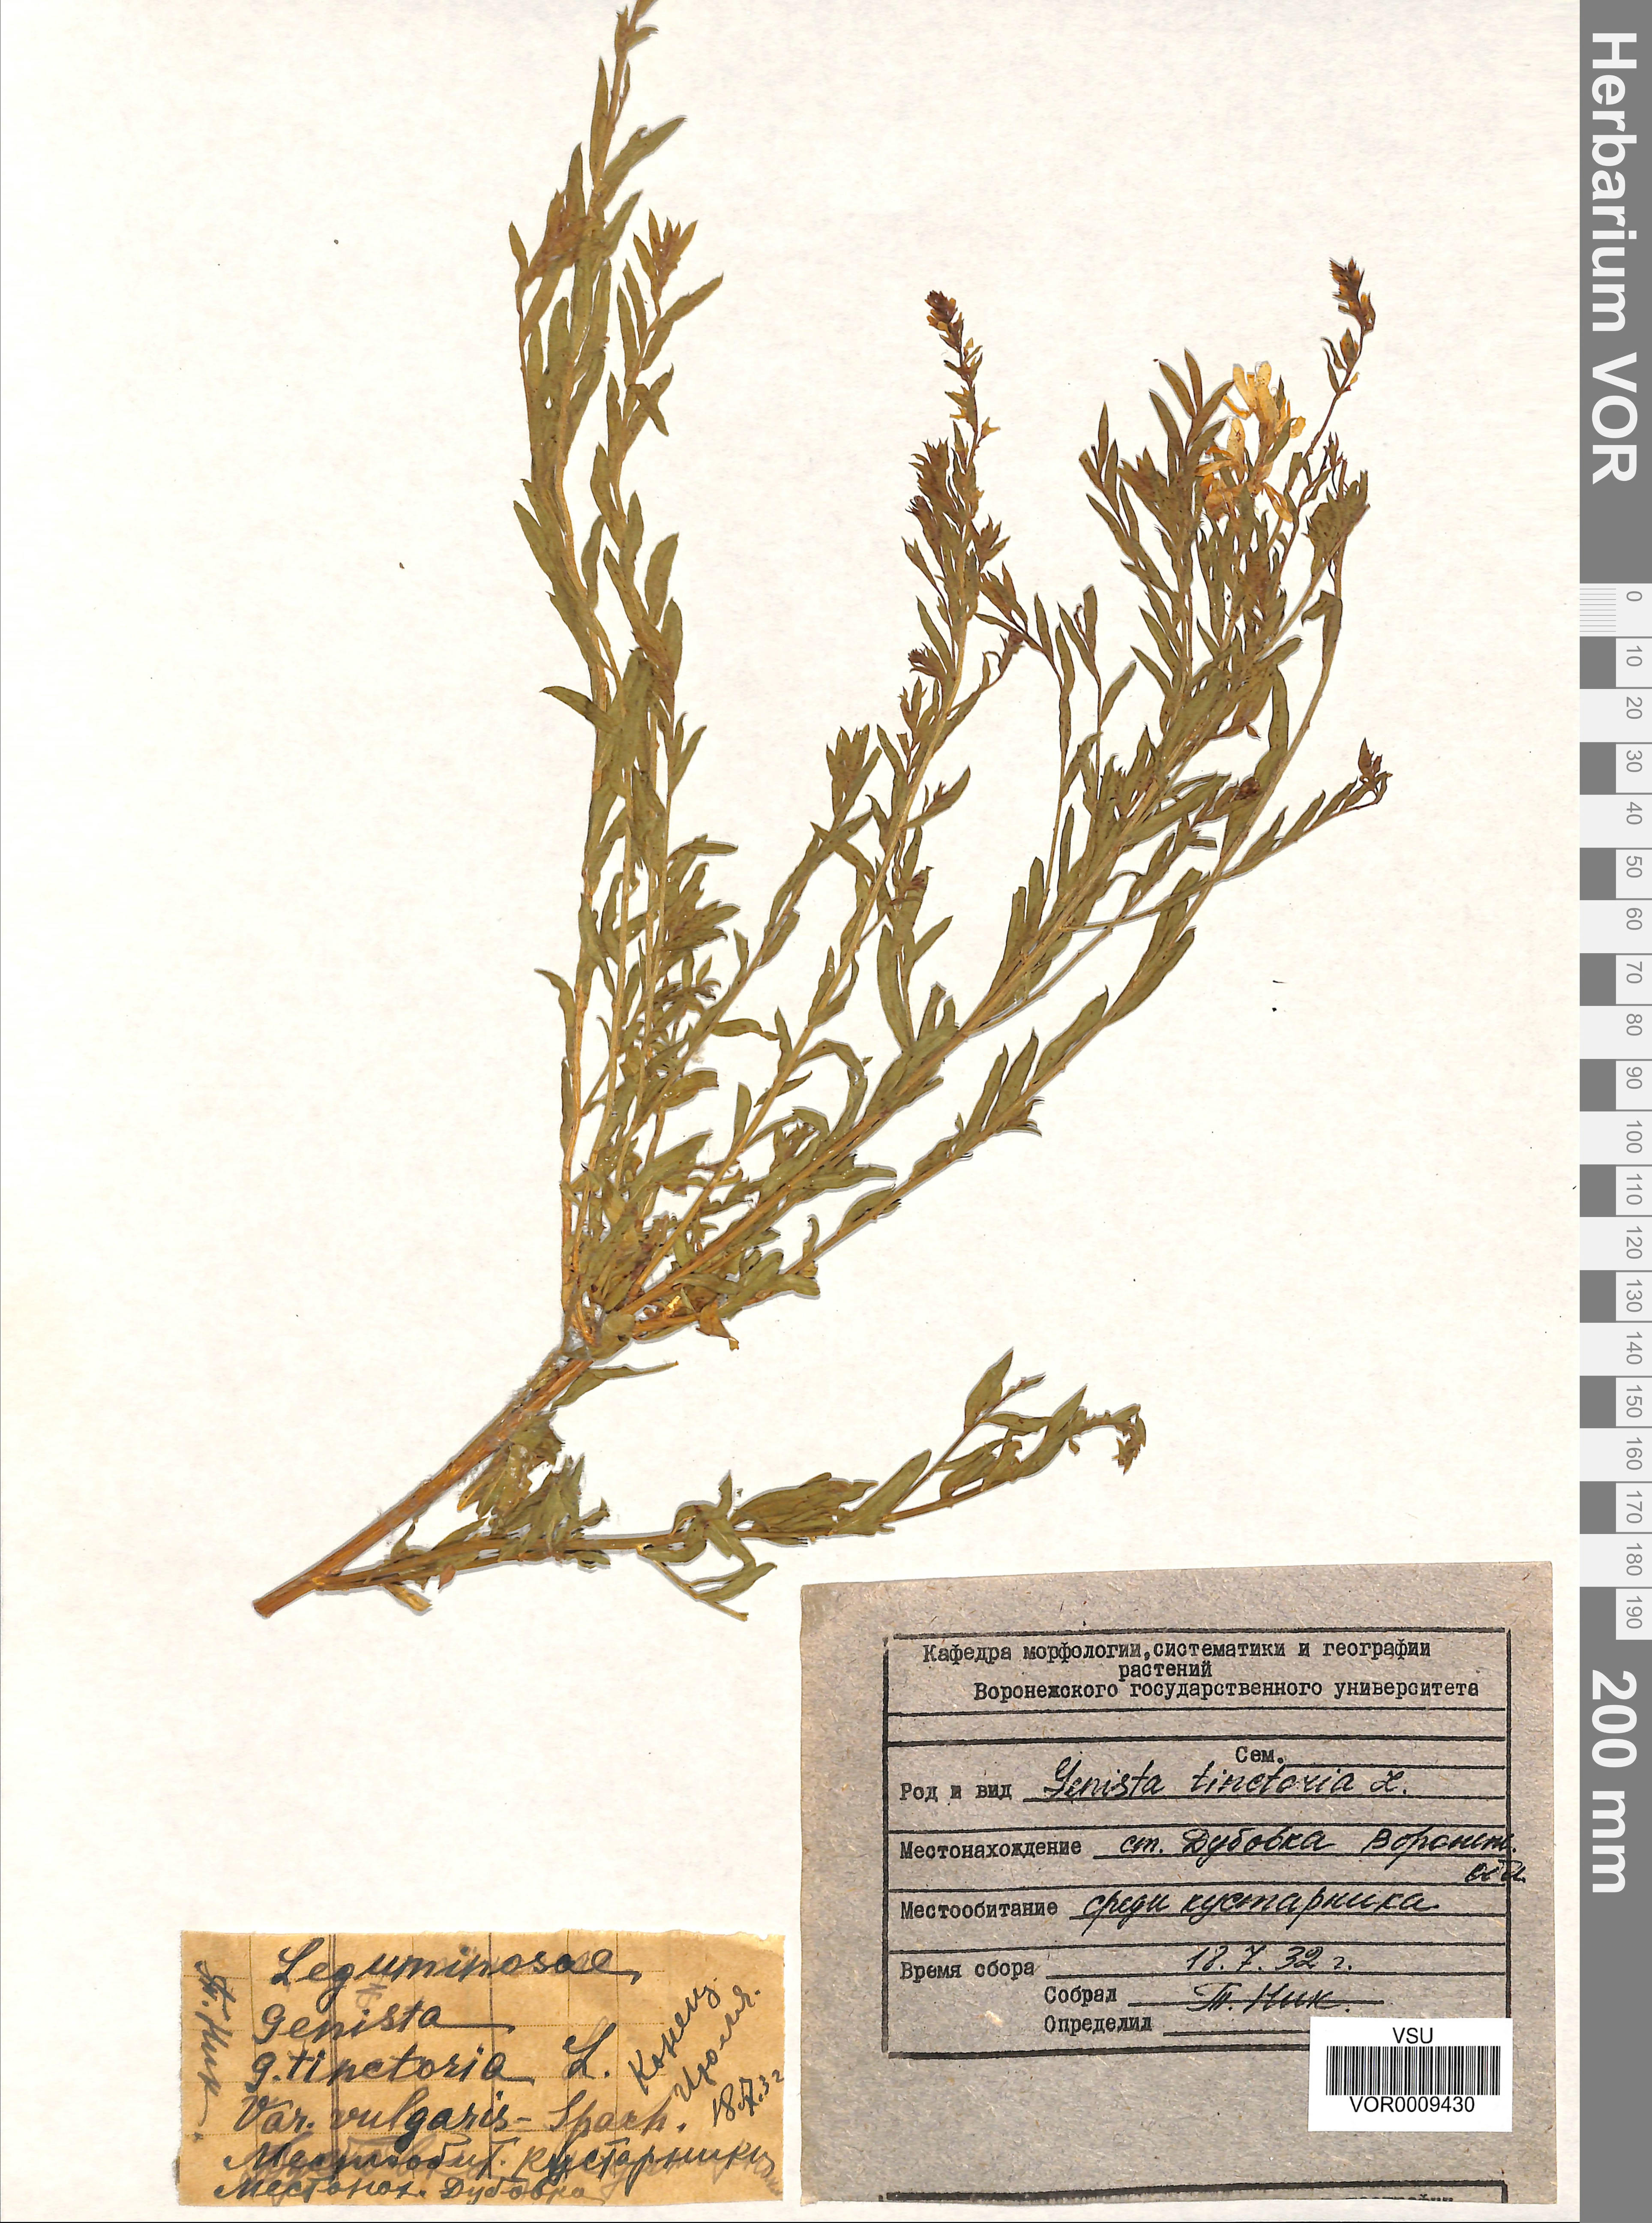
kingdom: Plantae
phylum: Tracheophyta
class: Magnoliopsida
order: Fabales
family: Fabaceae
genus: Genista
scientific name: Genista tinctoria
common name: Dyer's greenweed
